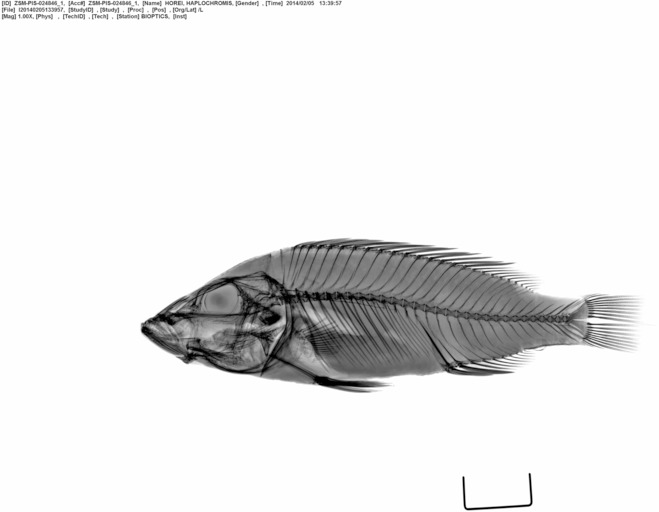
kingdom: Animalia
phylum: Chordata
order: Perciformes
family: Cichlidae
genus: Ctenochromis
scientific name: Ctenochromis horei
